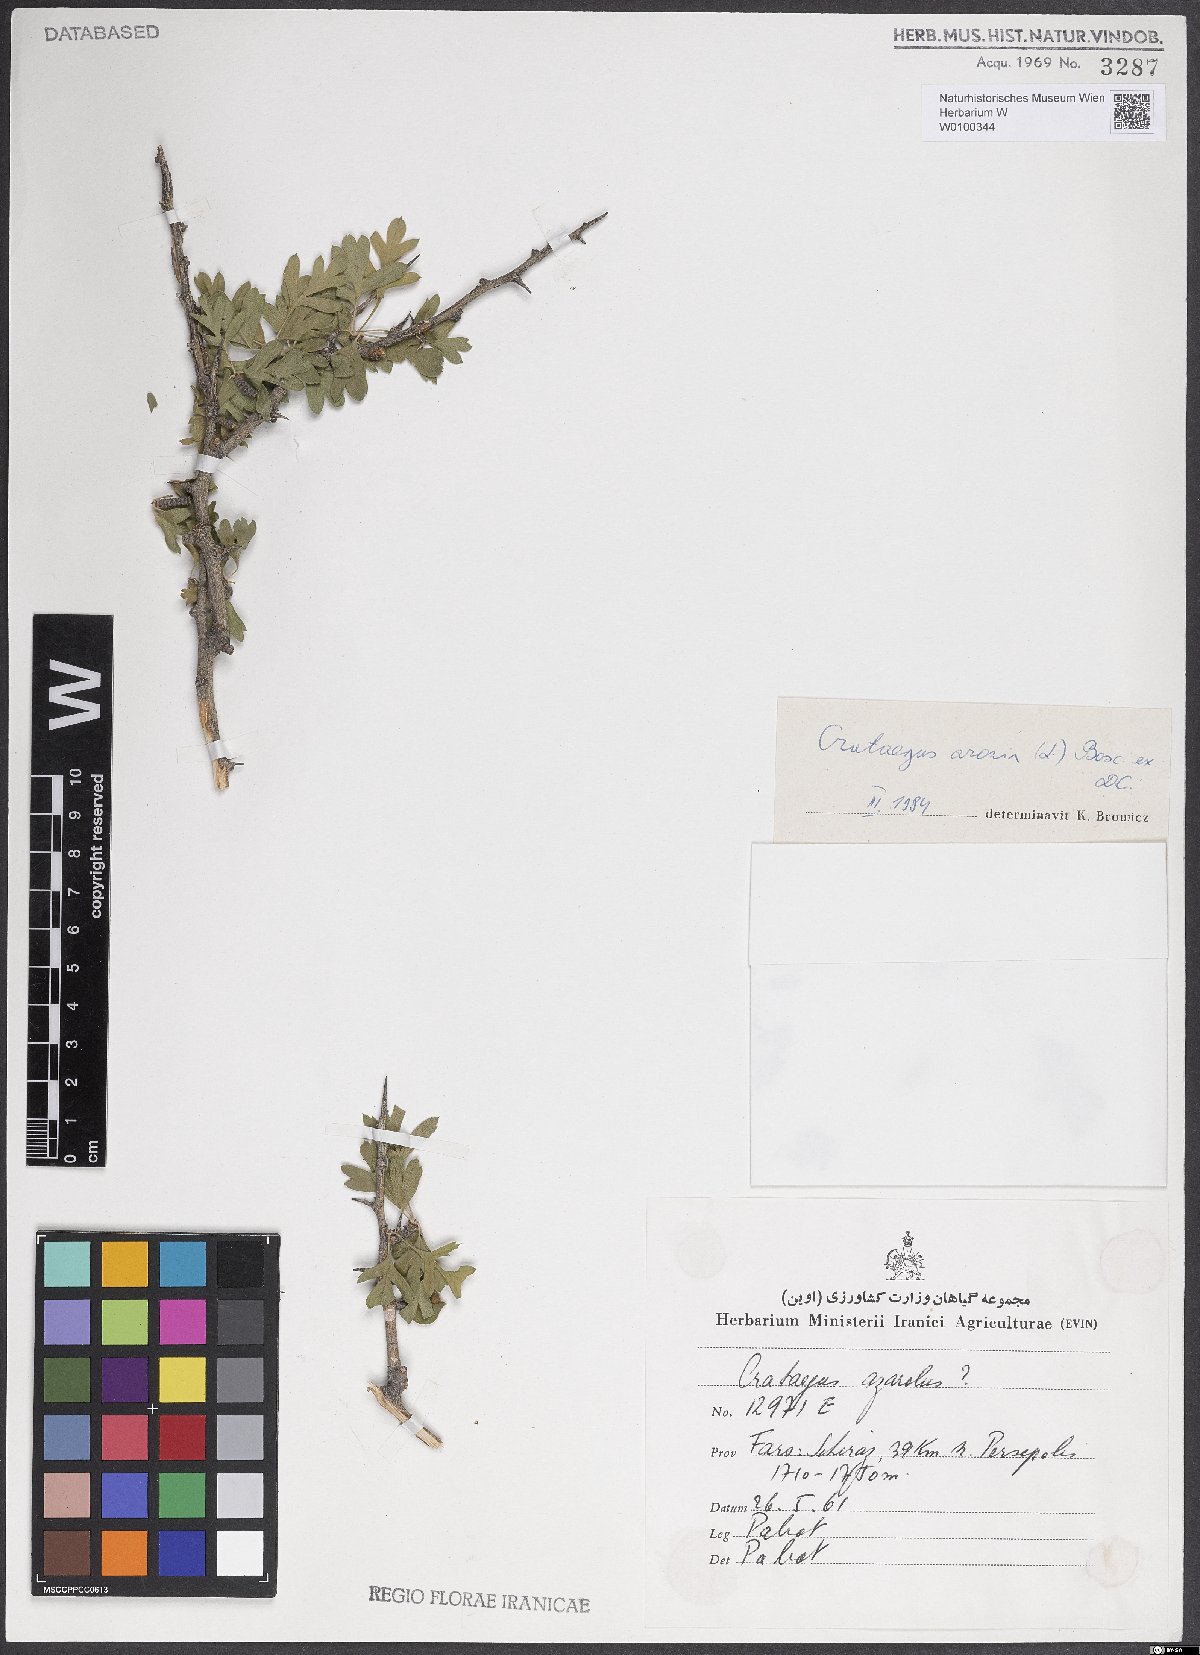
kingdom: Plantae
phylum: Tracheophyta
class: Magnoliopsida
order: Rosales
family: Rosaceae
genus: Crataegus
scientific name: Crataegus azarolus
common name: Azarole
